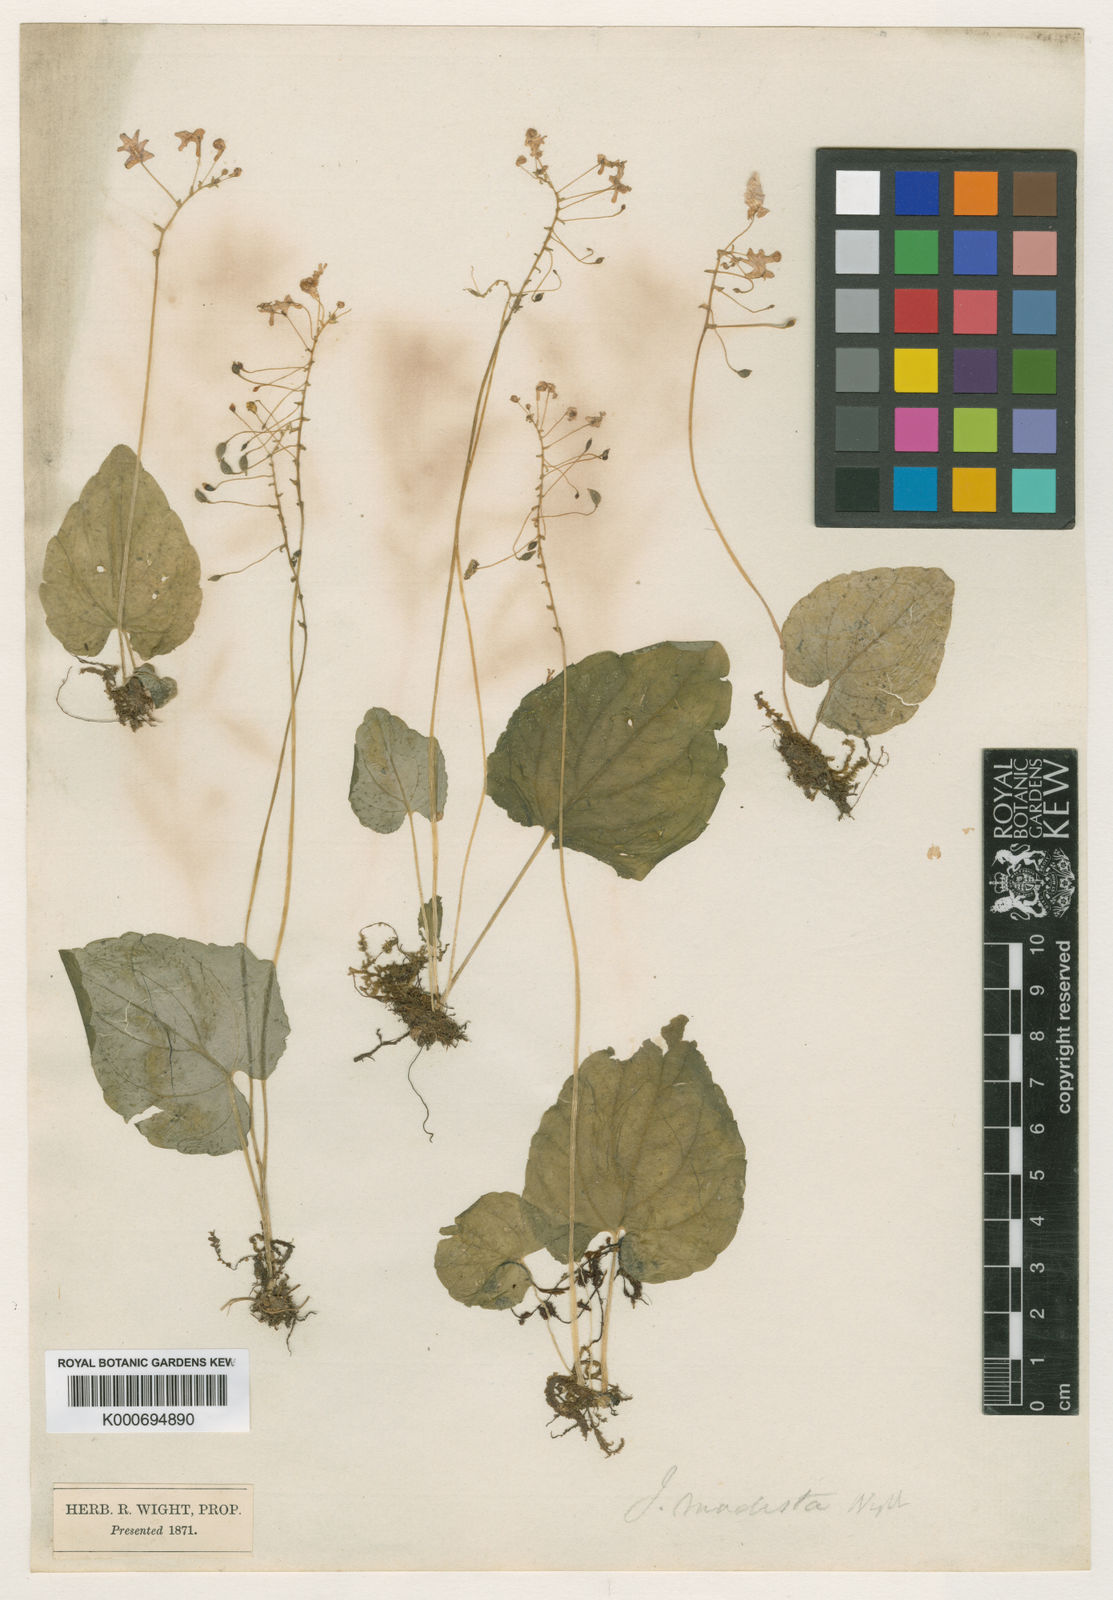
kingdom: Plantae
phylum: Tracheophyta
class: Magnoliopsida
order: Ericales
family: Balsaminaceae
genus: Impatiens
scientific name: Impatiens modesta
